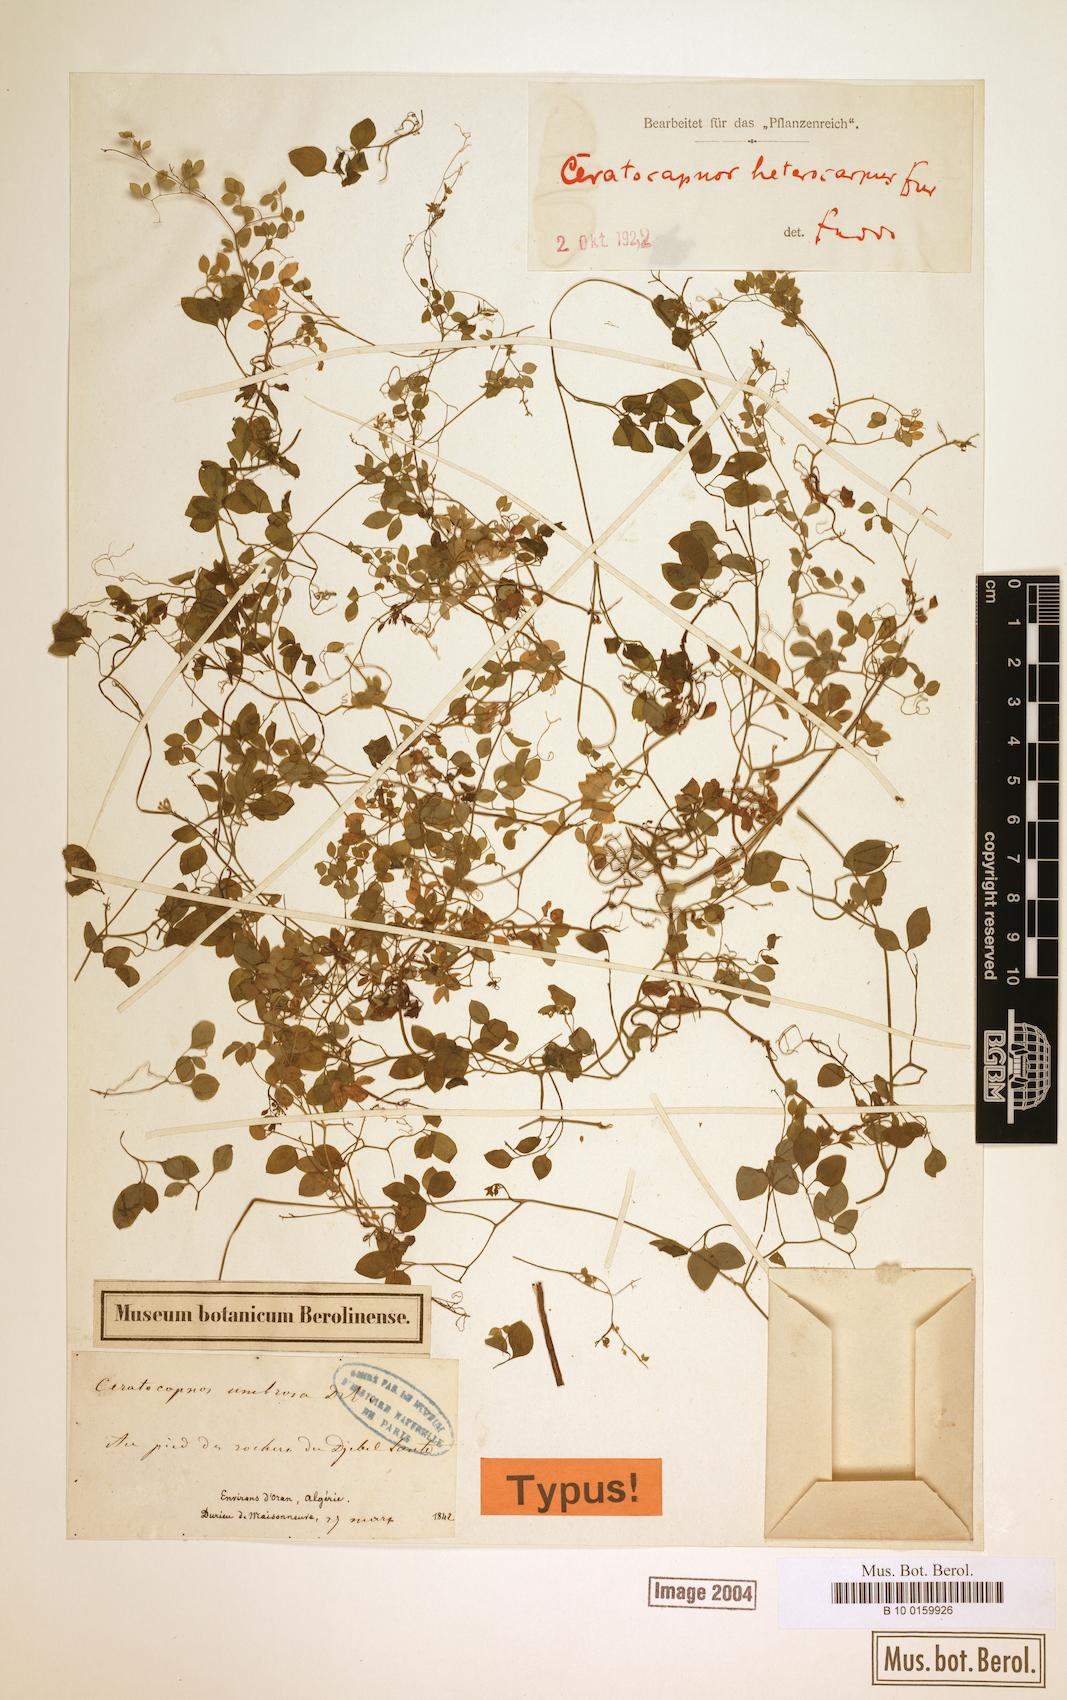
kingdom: Plantae
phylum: Tracheophyta
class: Magnoliopsida
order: Ranunculales
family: Papaveraceae
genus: Ceratocapnos
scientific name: Ceratocapnos heterocarpa
